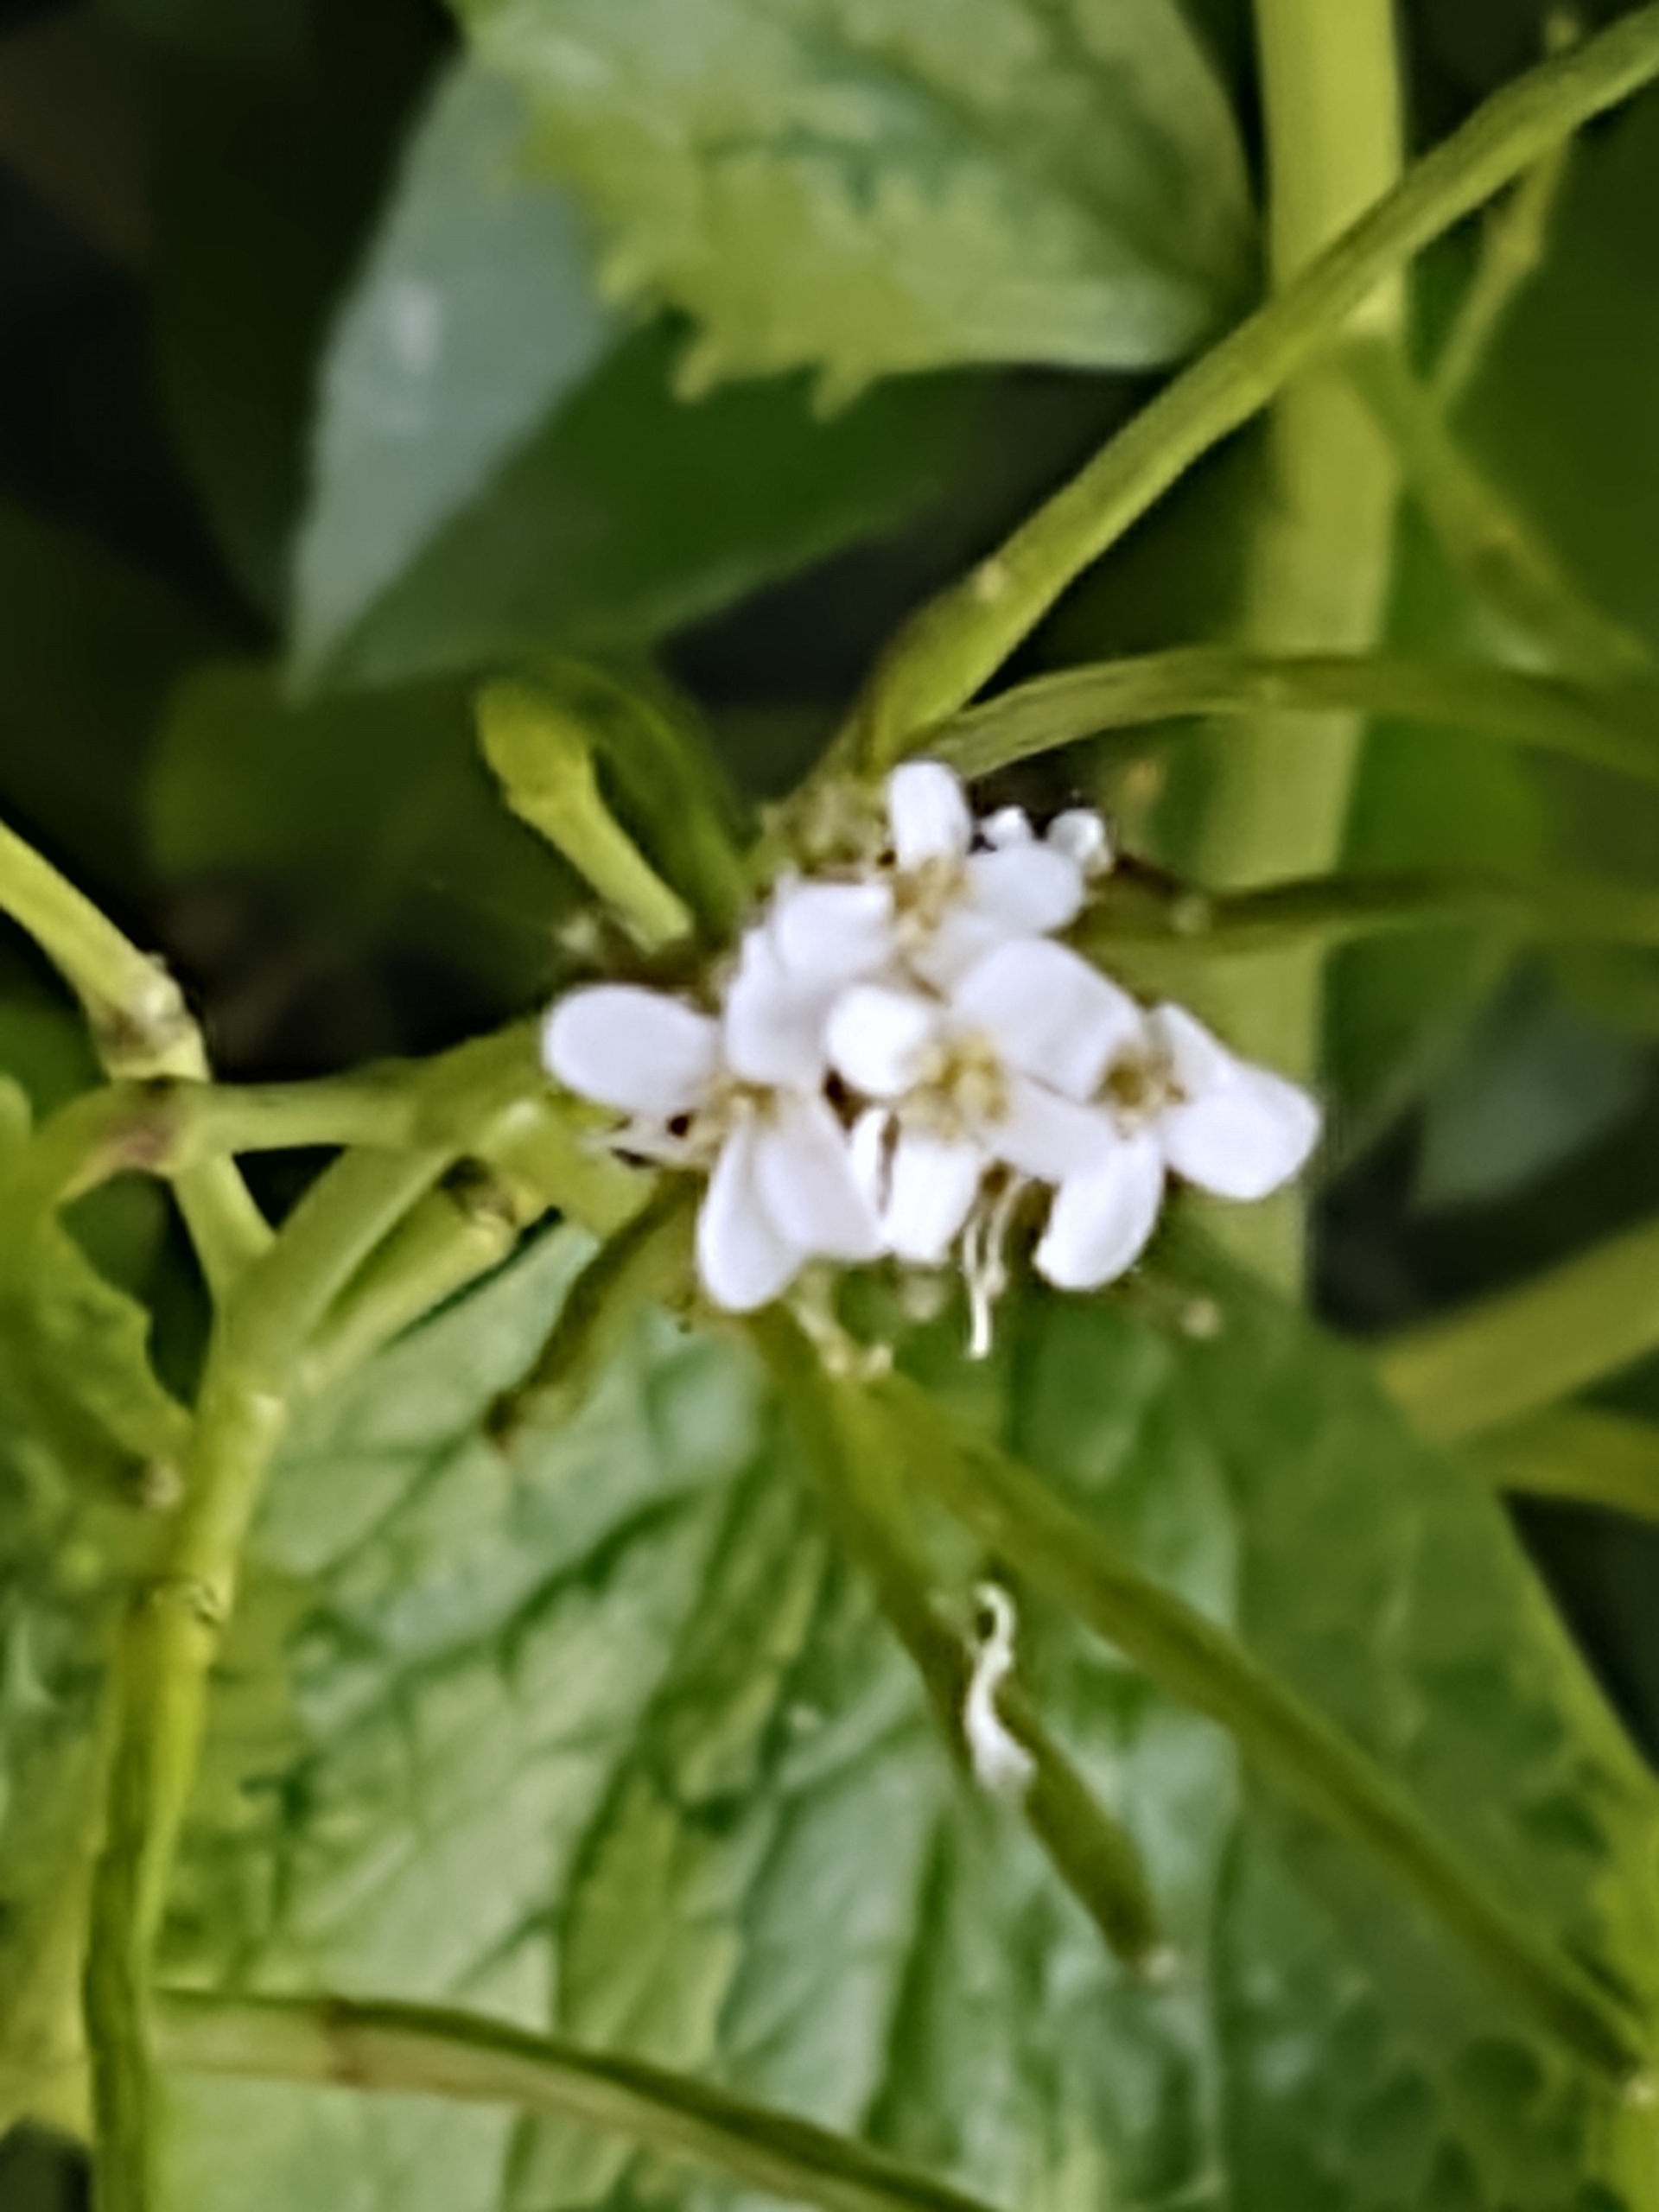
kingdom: Plantae
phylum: Tracheophyta
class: Magnoliopsida
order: Brassicales
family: Brassicaceae
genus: Alliaria
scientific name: Alliaria petiolata
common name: Løgkarse
